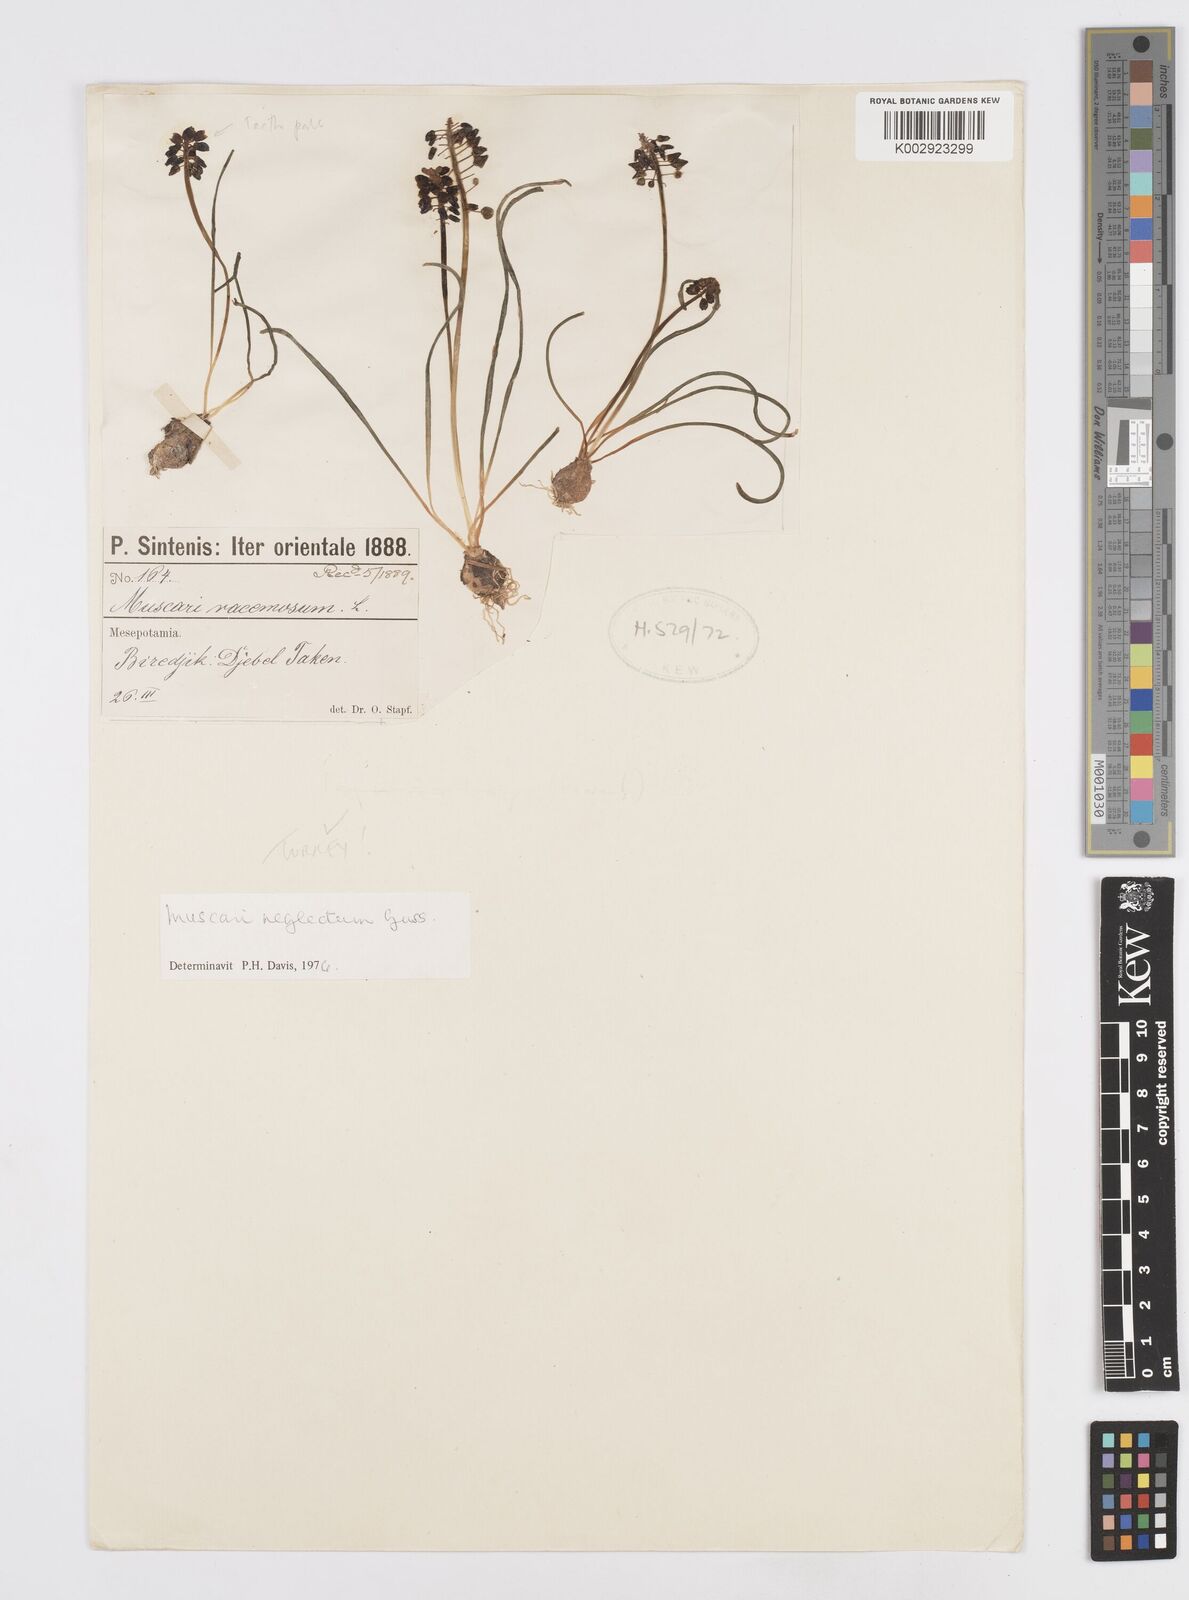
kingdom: Plantae
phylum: Tracheophyta
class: Liliopsida
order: Asparagales
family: Asparagaceae
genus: Muscari
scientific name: Muscari neglectum
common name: Grape-hyacinth
